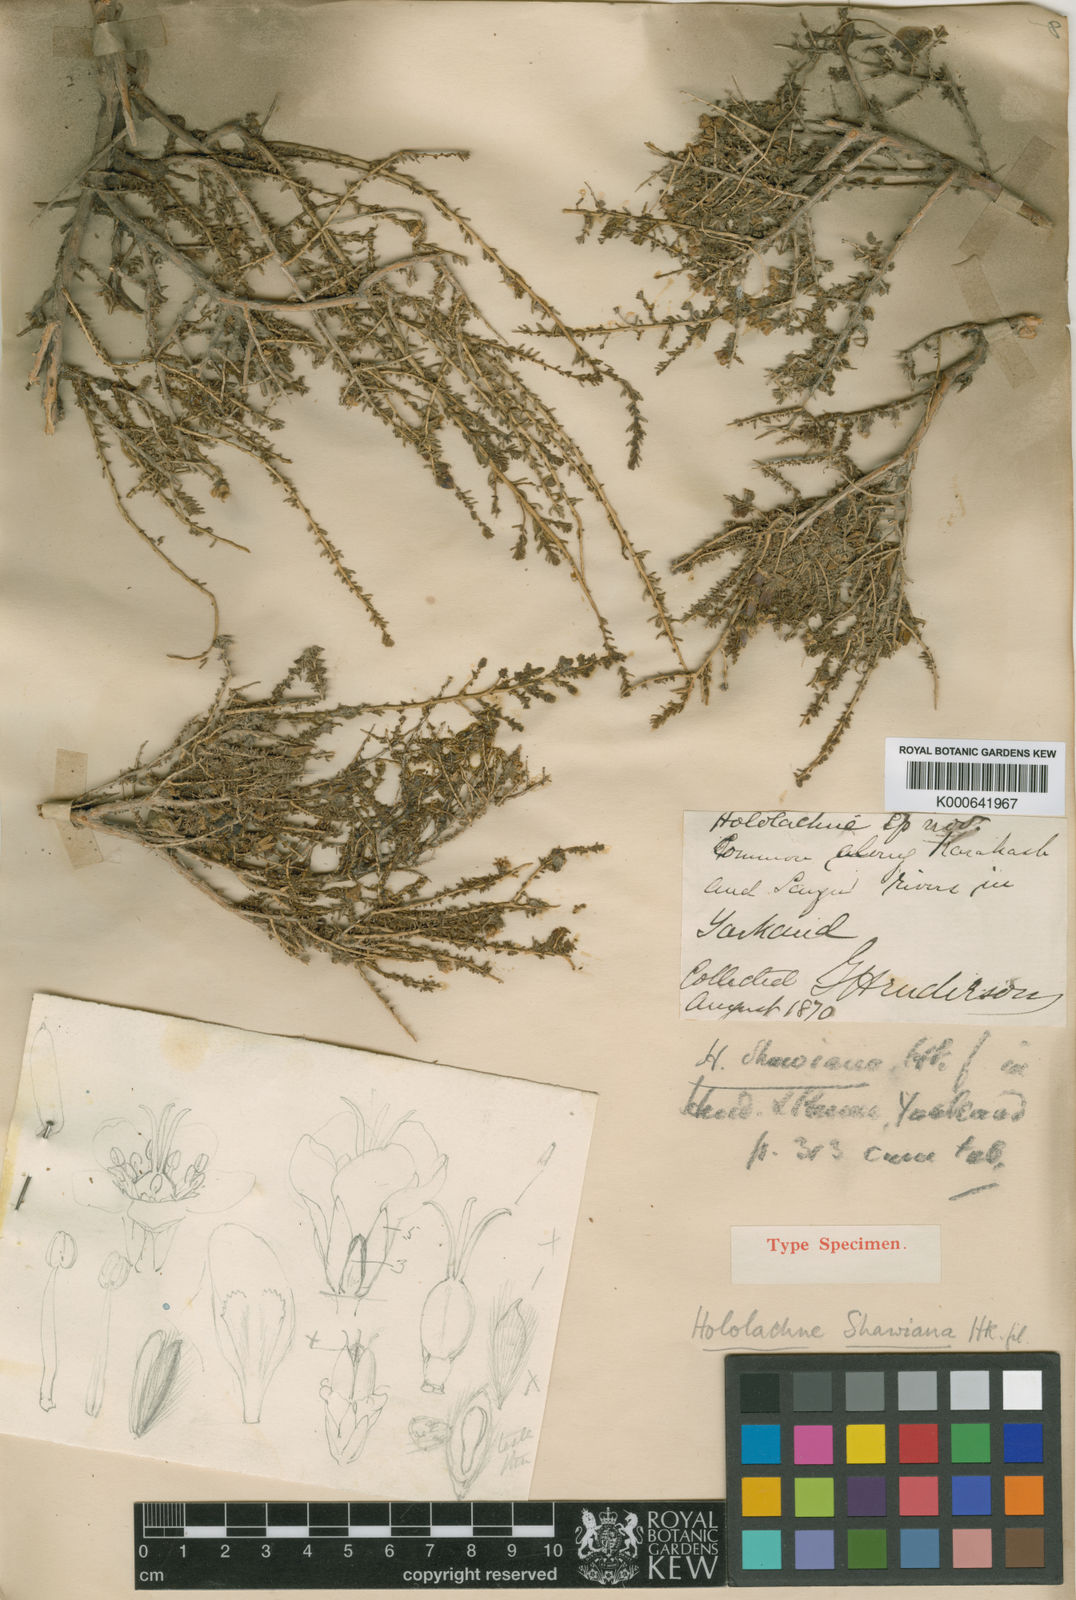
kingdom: Plantae
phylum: Tracheophyta
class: Magnoliopsida
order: Caryophyllales
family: Tamaricaceae
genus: Reaumuria
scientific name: Reaumuria
